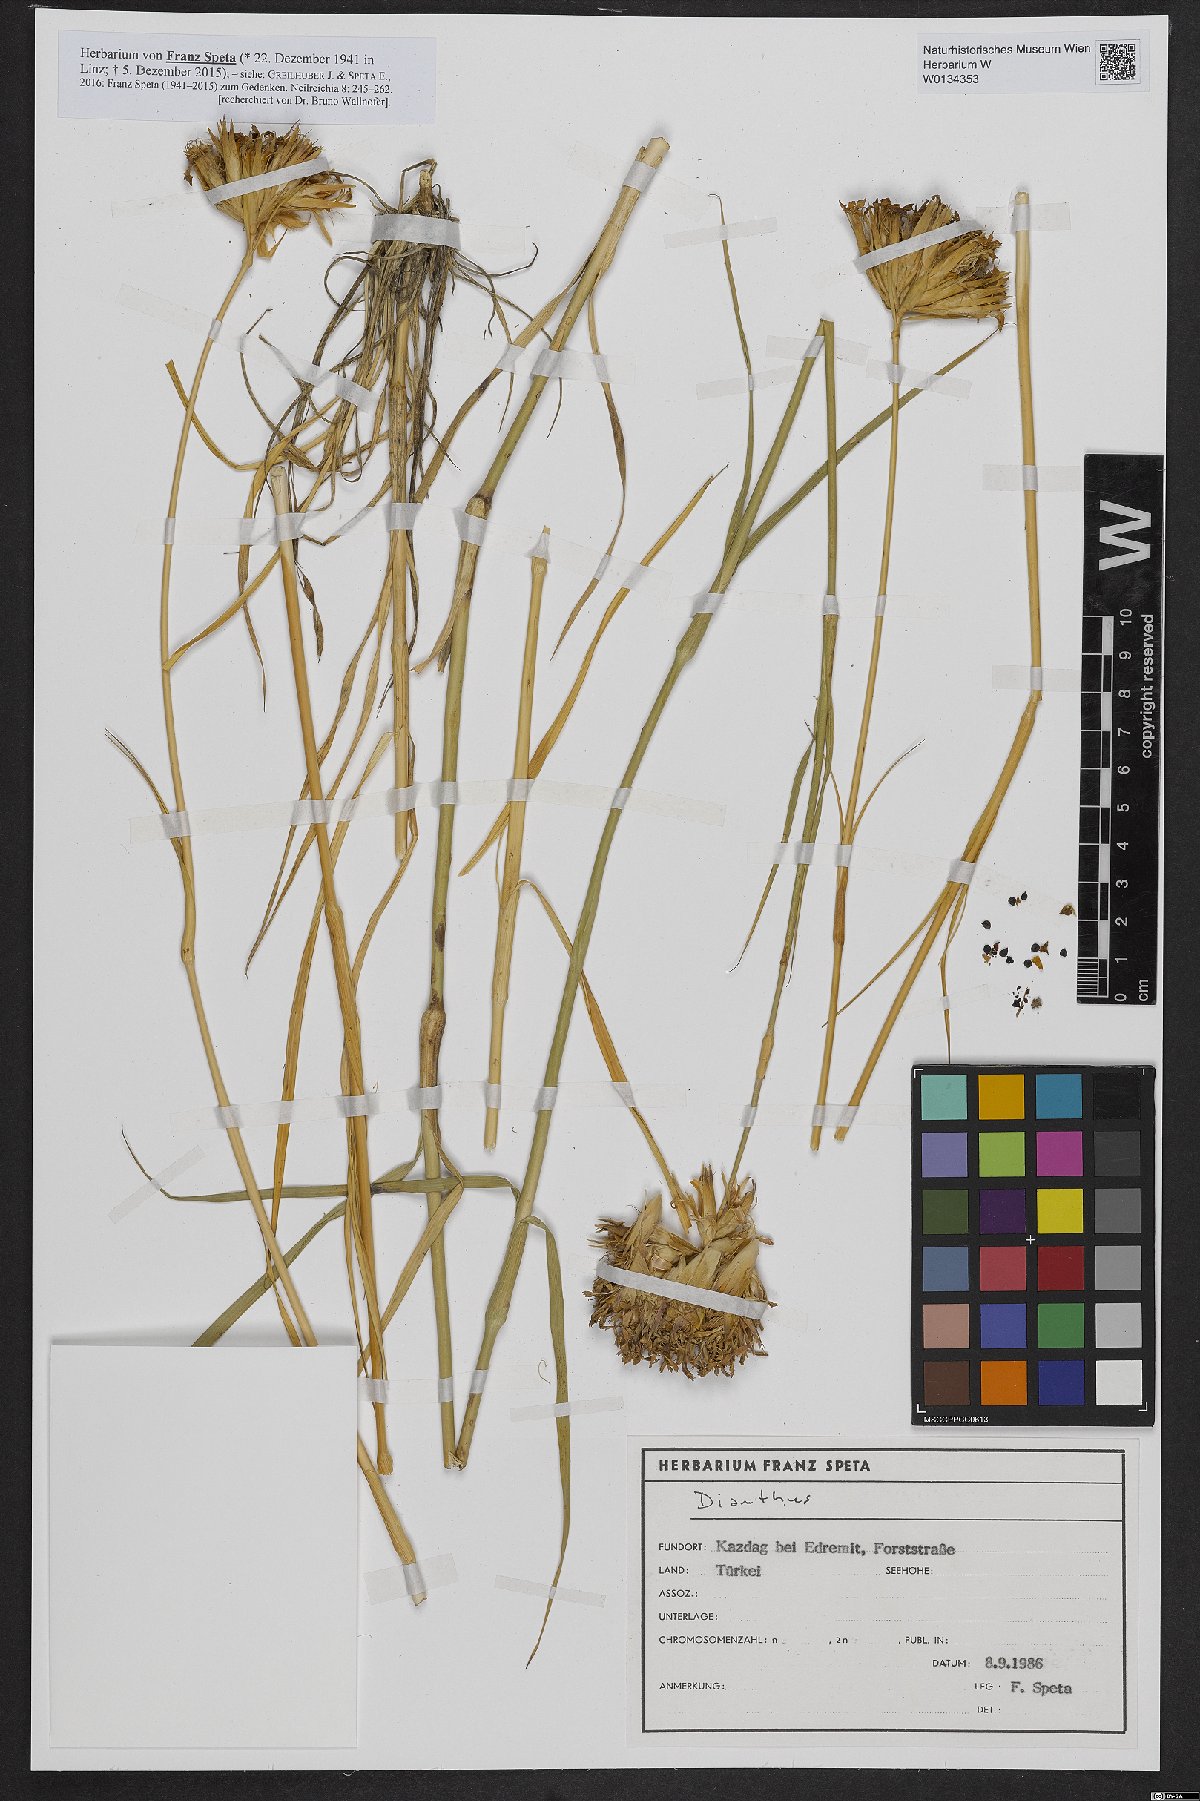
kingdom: Plantae
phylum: Tracheophyta
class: Magnoliopsida
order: Caryophyllales
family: Caryophyllaceae
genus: Dianthus
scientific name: Dianthus
